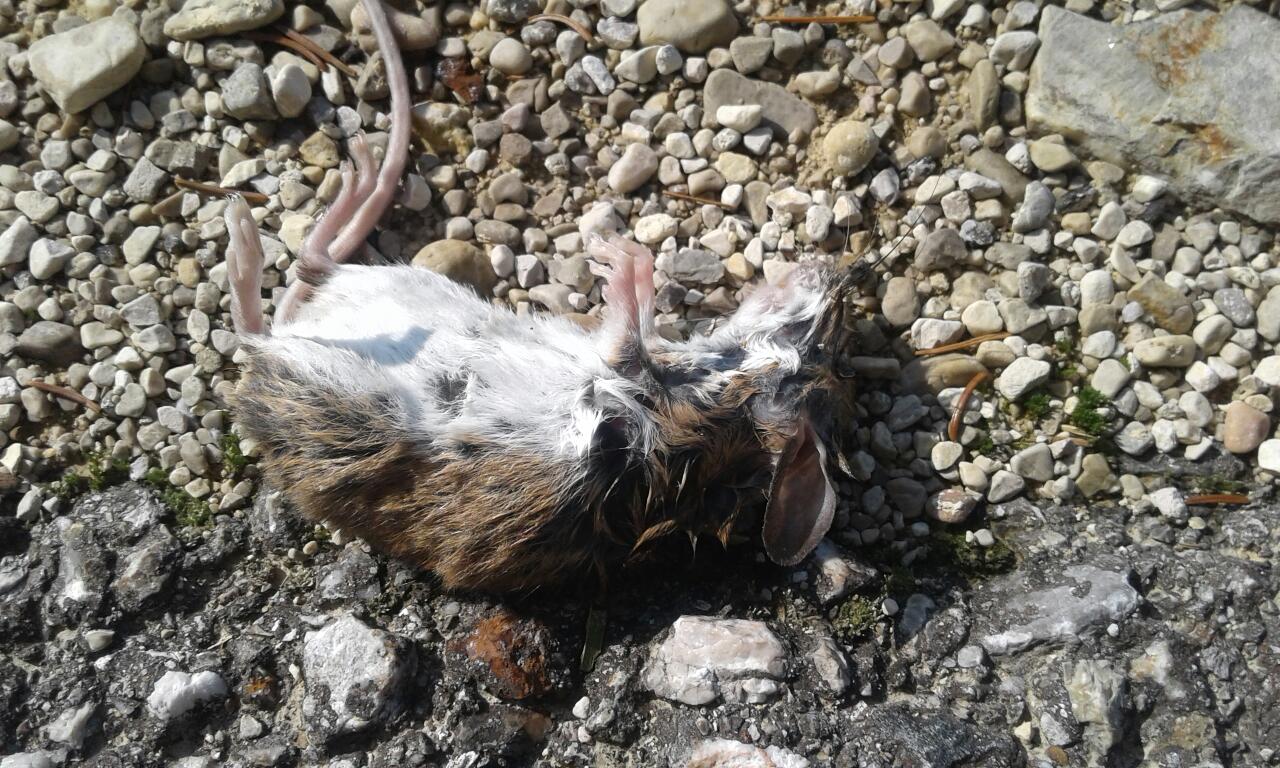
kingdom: Animalia
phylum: Chordata
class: Mammalia
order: Rodentia
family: Muridae
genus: Apodemus
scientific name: Apodemus
